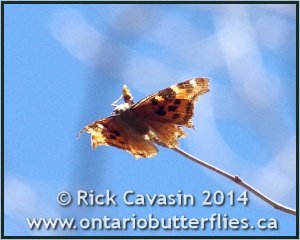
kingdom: Animalia
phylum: Arthropoda
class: Insecta
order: Lepidoptera
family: Nymphalidae
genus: Polygonia
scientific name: Polygonia vaualbum
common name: Compton Tortoiseshell
